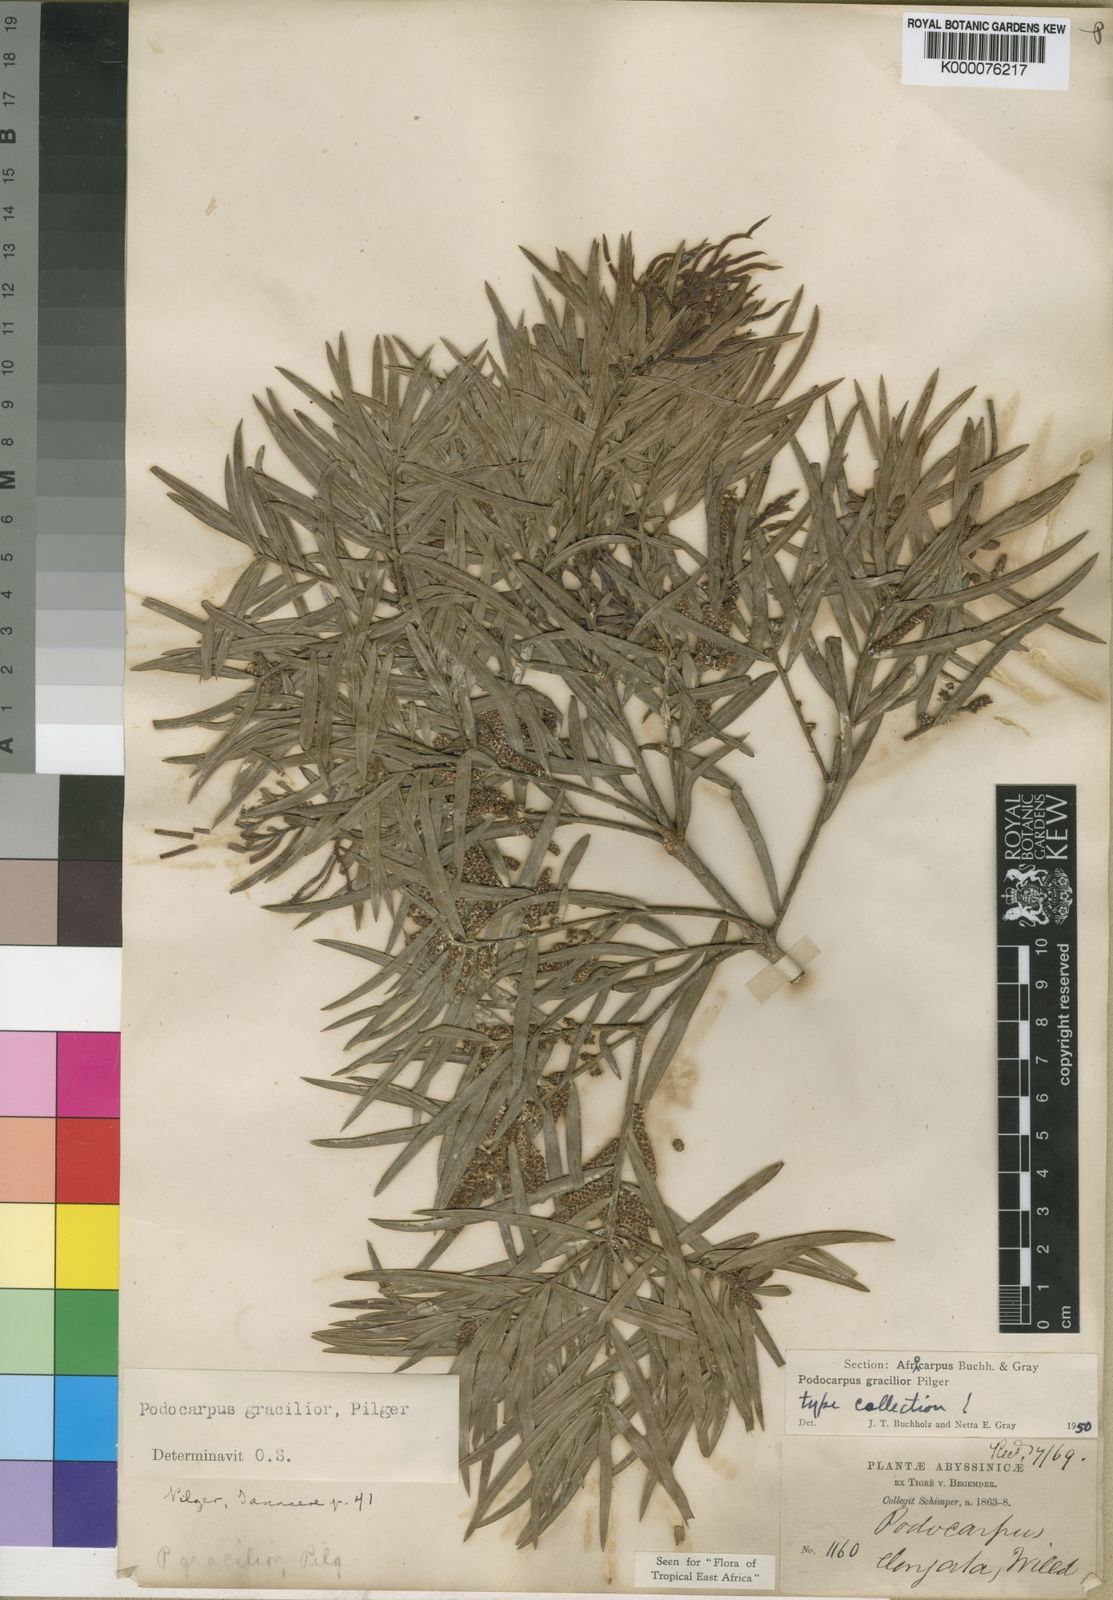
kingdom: Plantae
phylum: Tracheophyta
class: Pinopsida
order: Pinales
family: Podocarpaceae
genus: Afrocarpus
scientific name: Afrocarpus
